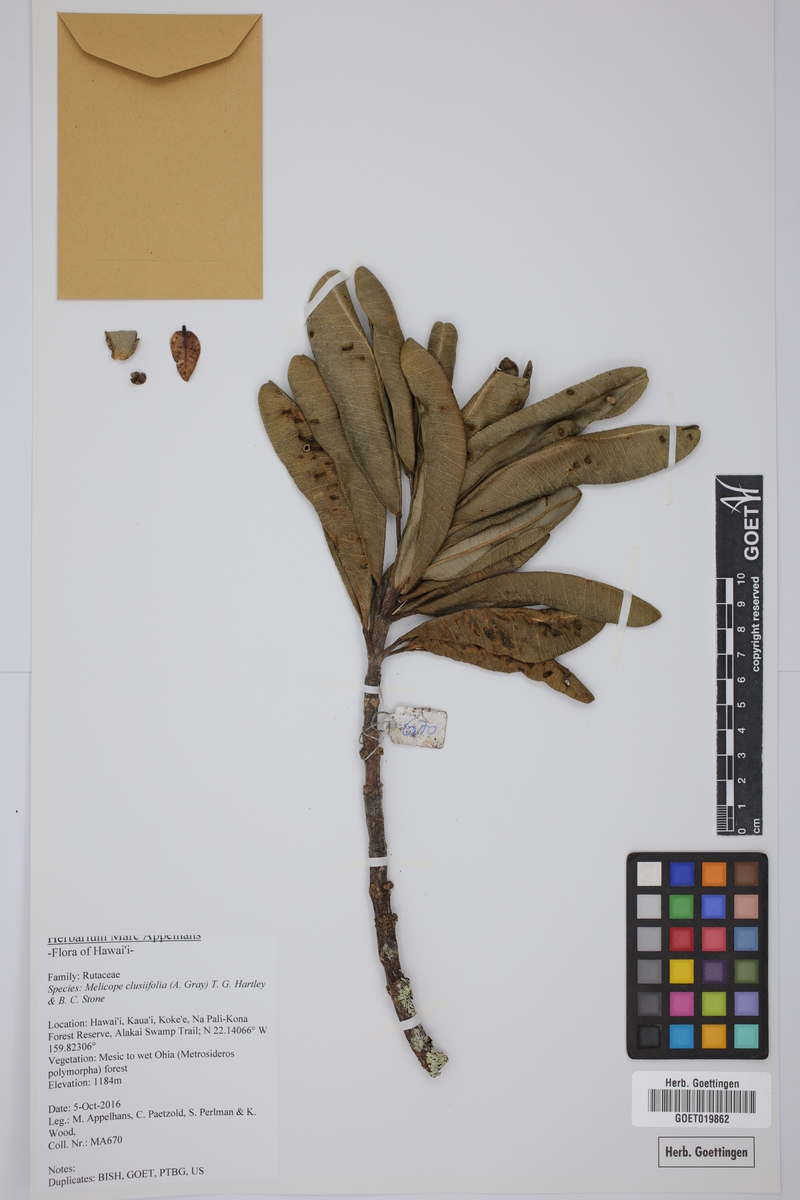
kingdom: Plantae
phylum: Tracheophyta
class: Magnoliopsida
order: Sapindales
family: Rutaceae
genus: Melicope
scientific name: Melicope clusiifolia
